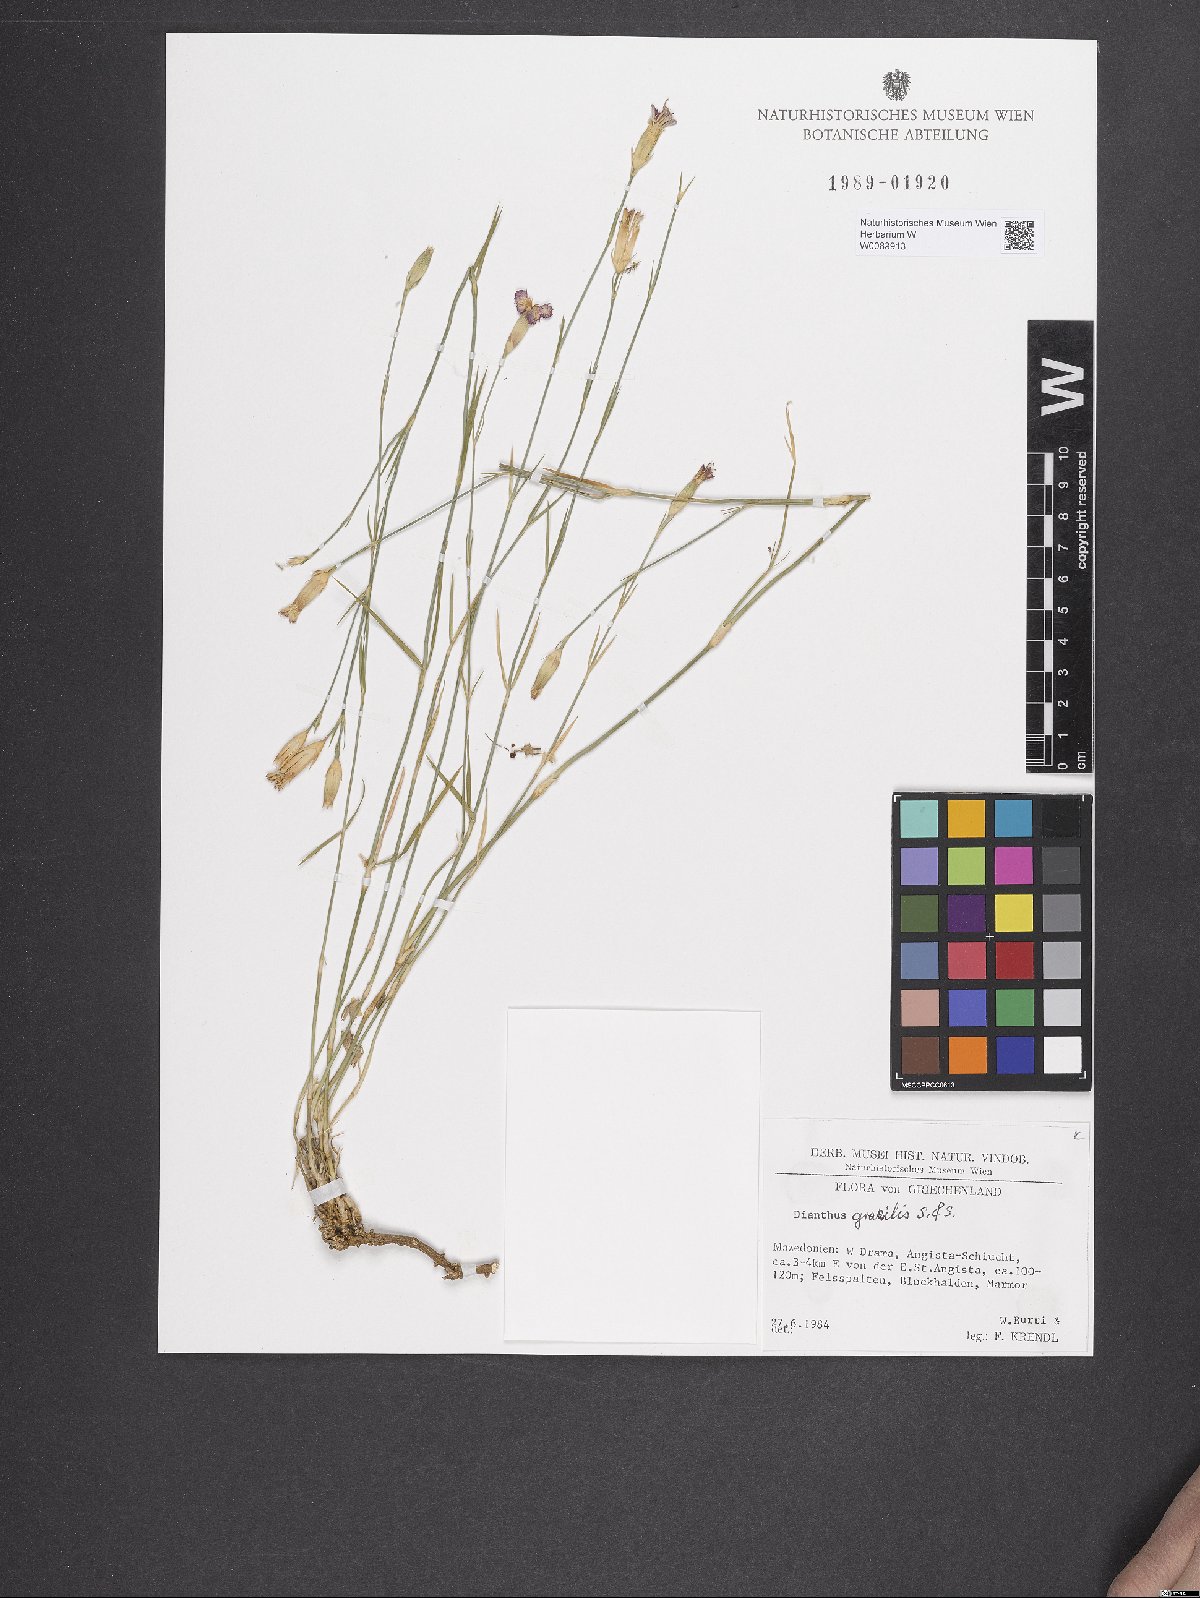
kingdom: Plantae
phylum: Tracheophyta
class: Magnoliopsida
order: Caryophyllales
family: Caryophyllaceae
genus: Dianthus
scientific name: Dianthus gracilis
